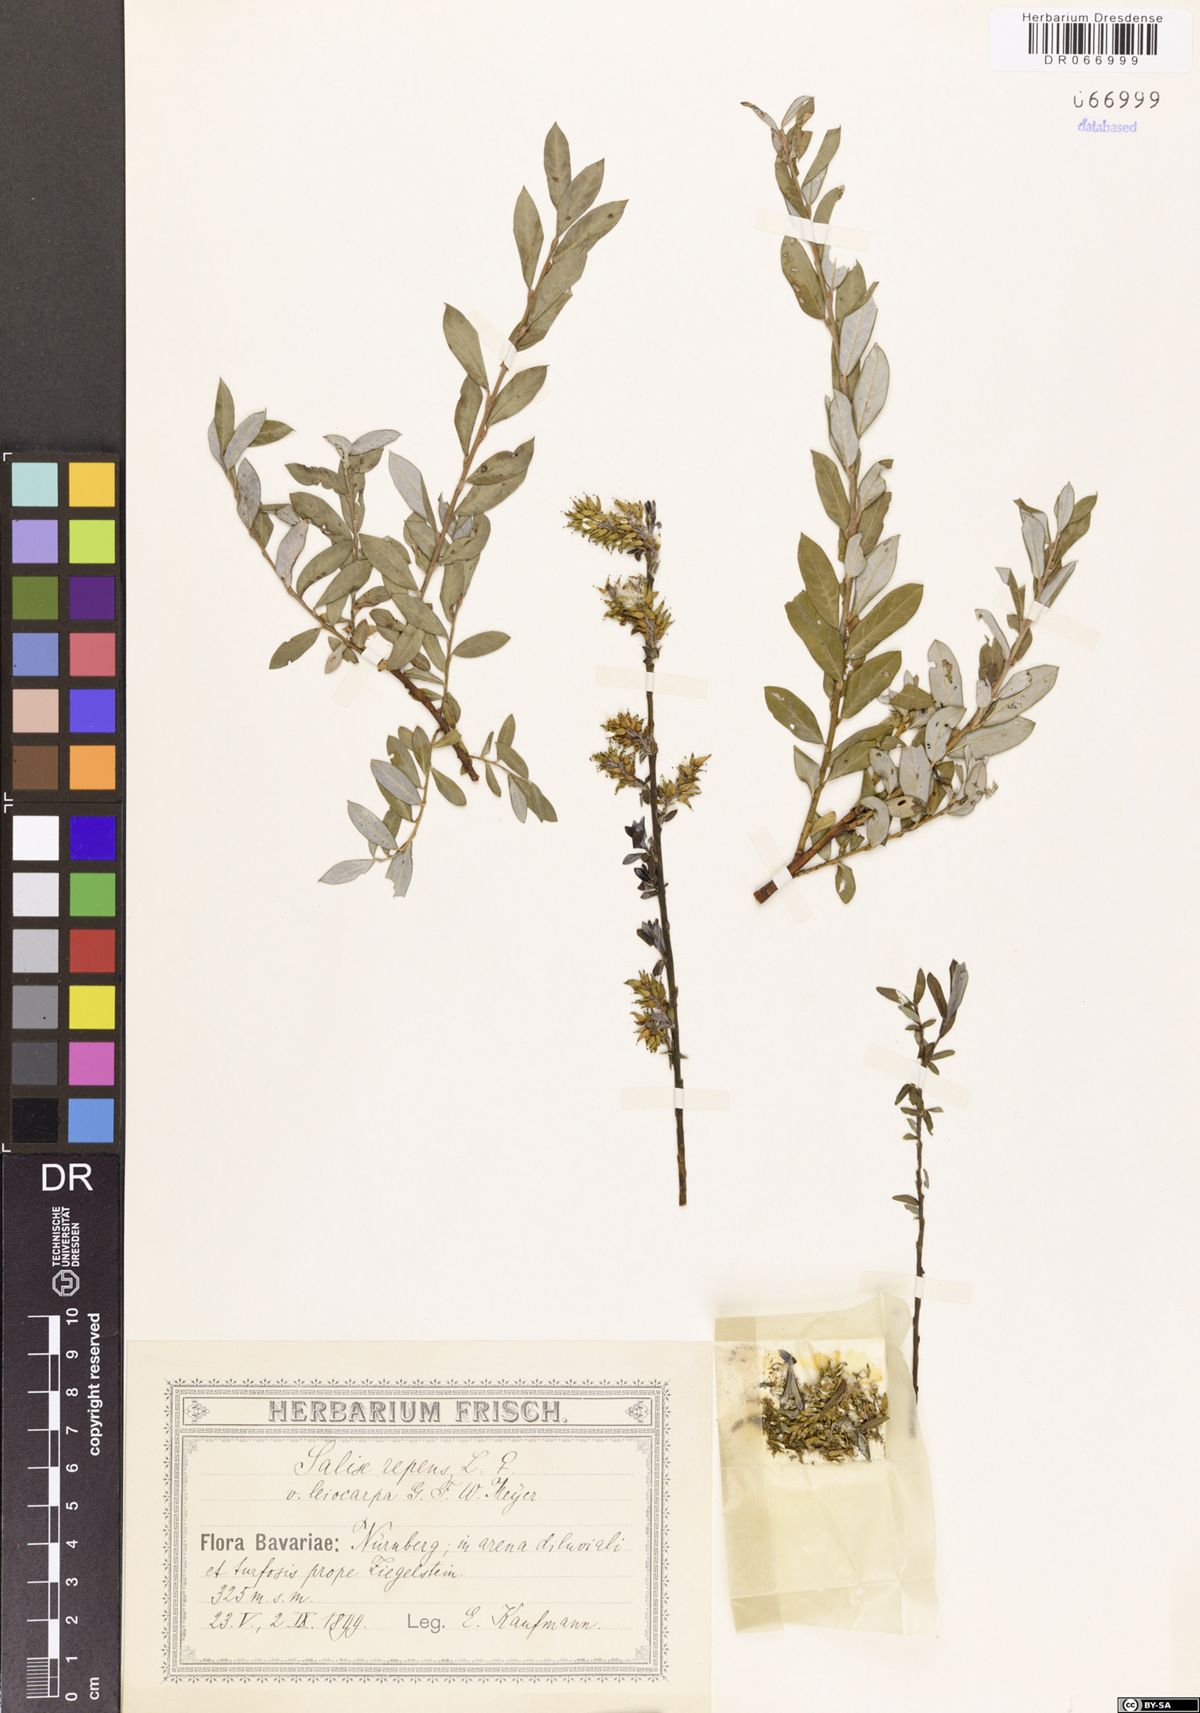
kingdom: Plantae
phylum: Tracheophyta
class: Magnoliopsida
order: Malpighiales
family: Salicaceae
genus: Salix
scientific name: Salix repens
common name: Creeping willow
